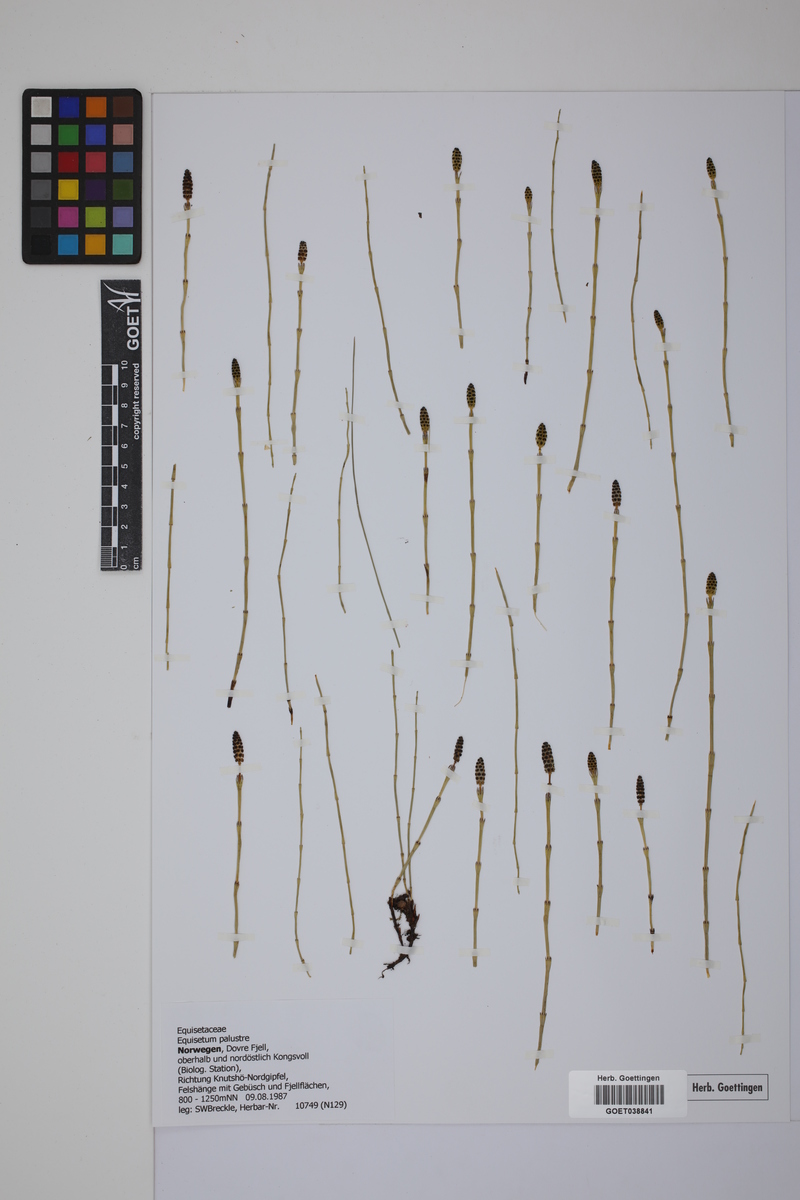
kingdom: Plantae
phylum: Tracheophyta
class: Polypodiopsida
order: Equisetales
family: Equisetaceae
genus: Equisetum
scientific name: Equisetum palustre
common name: Marsh horsetail
